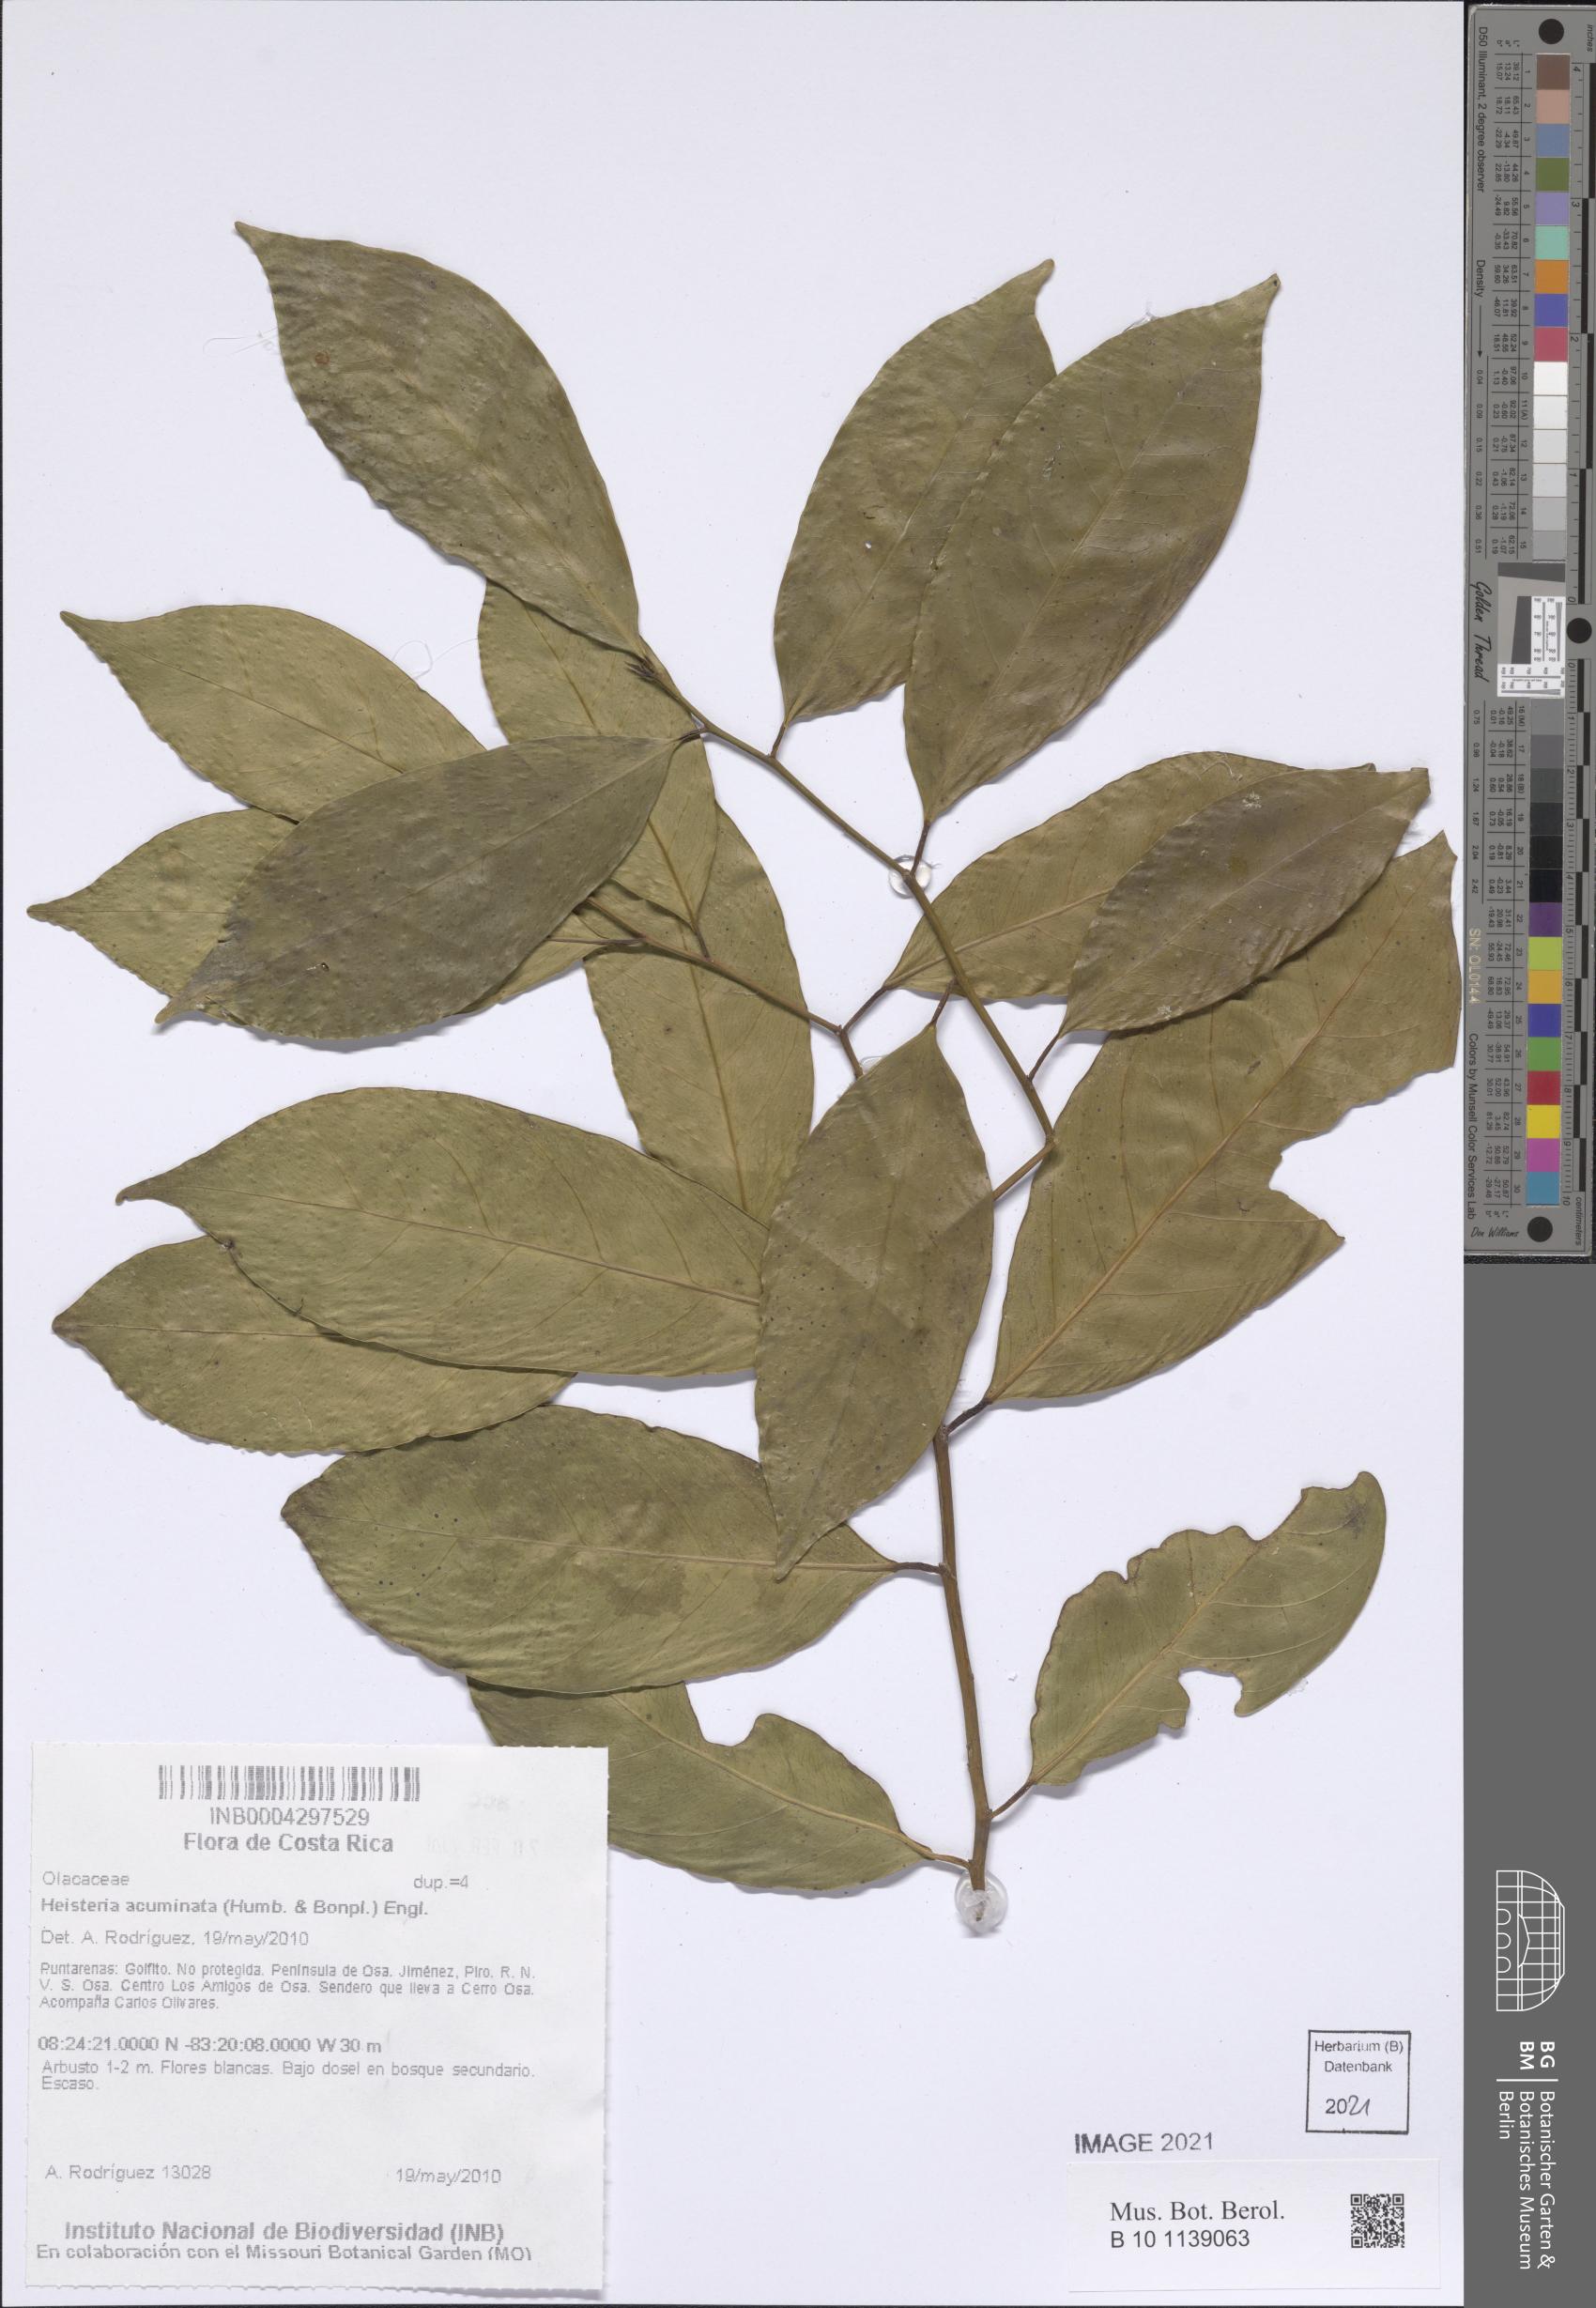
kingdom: Plantae
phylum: Tracheophyta
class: Magnoliopsida
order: Santalales
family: Erythropalaceae
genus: Heisteria
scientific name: Heisteria acuminata
